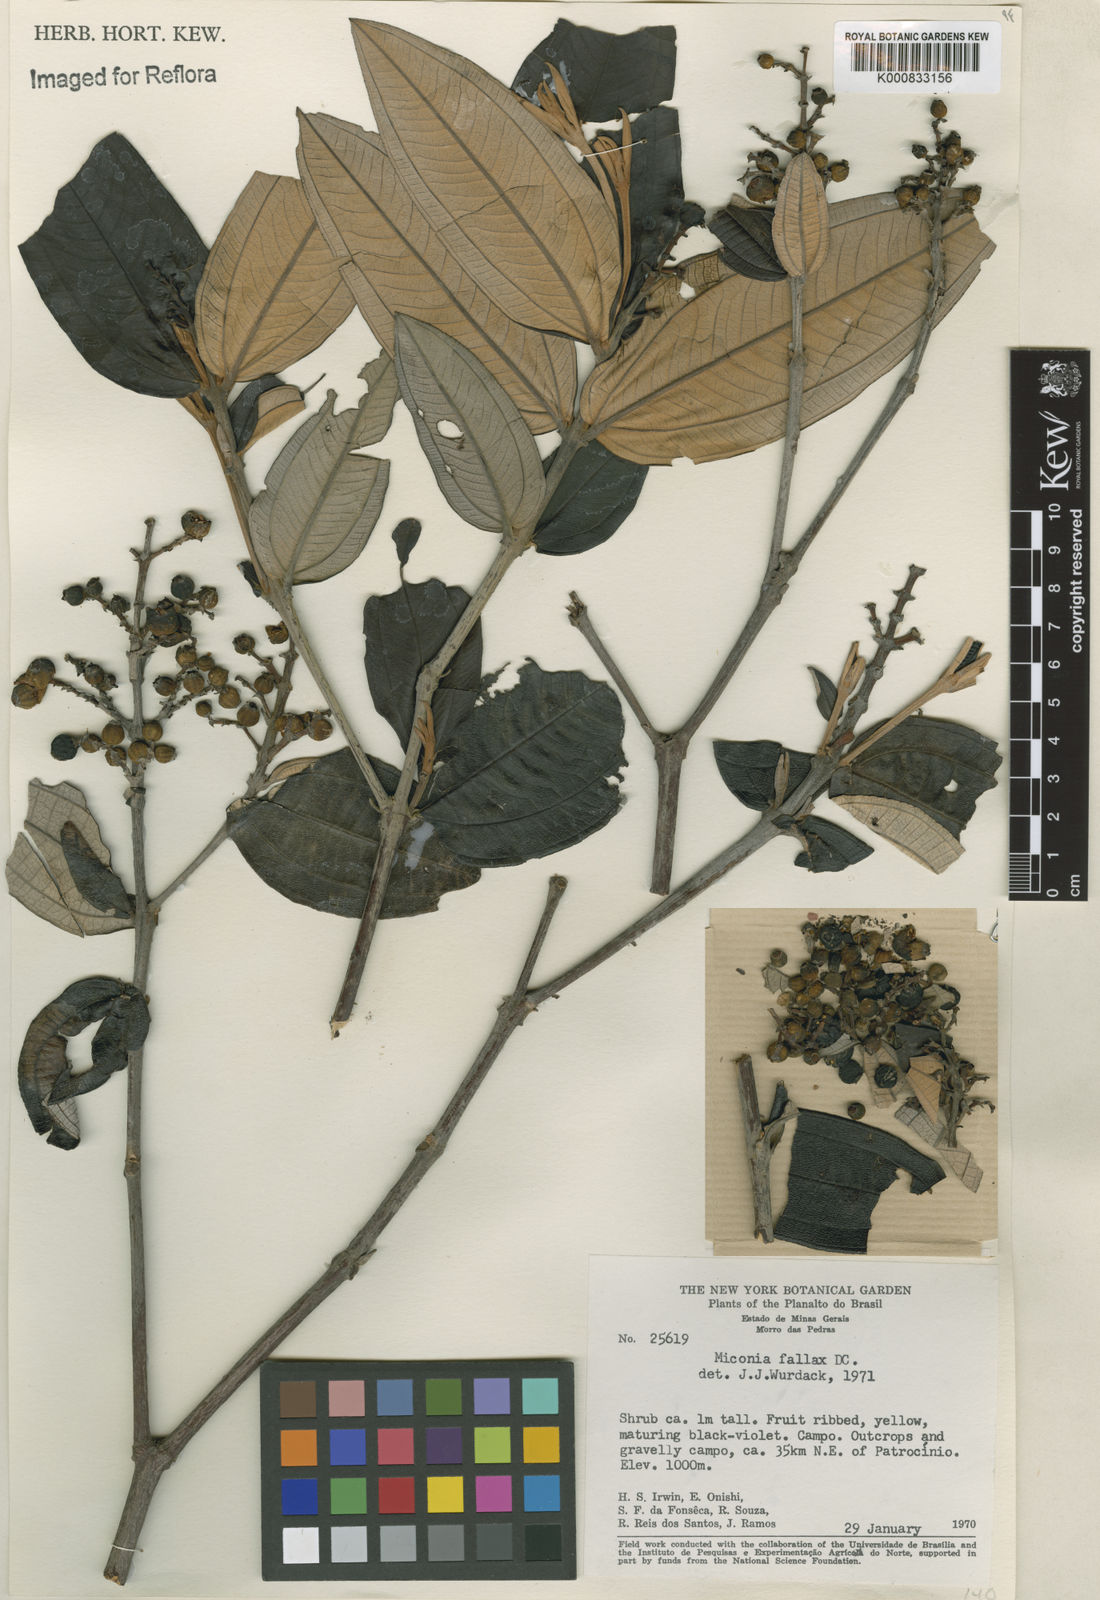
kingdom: Plantae
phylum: Tracheophyta
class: Magnoliopsida
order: Myrtales
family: Melastomataceae
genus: Miconia
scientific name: Miconia fallax
